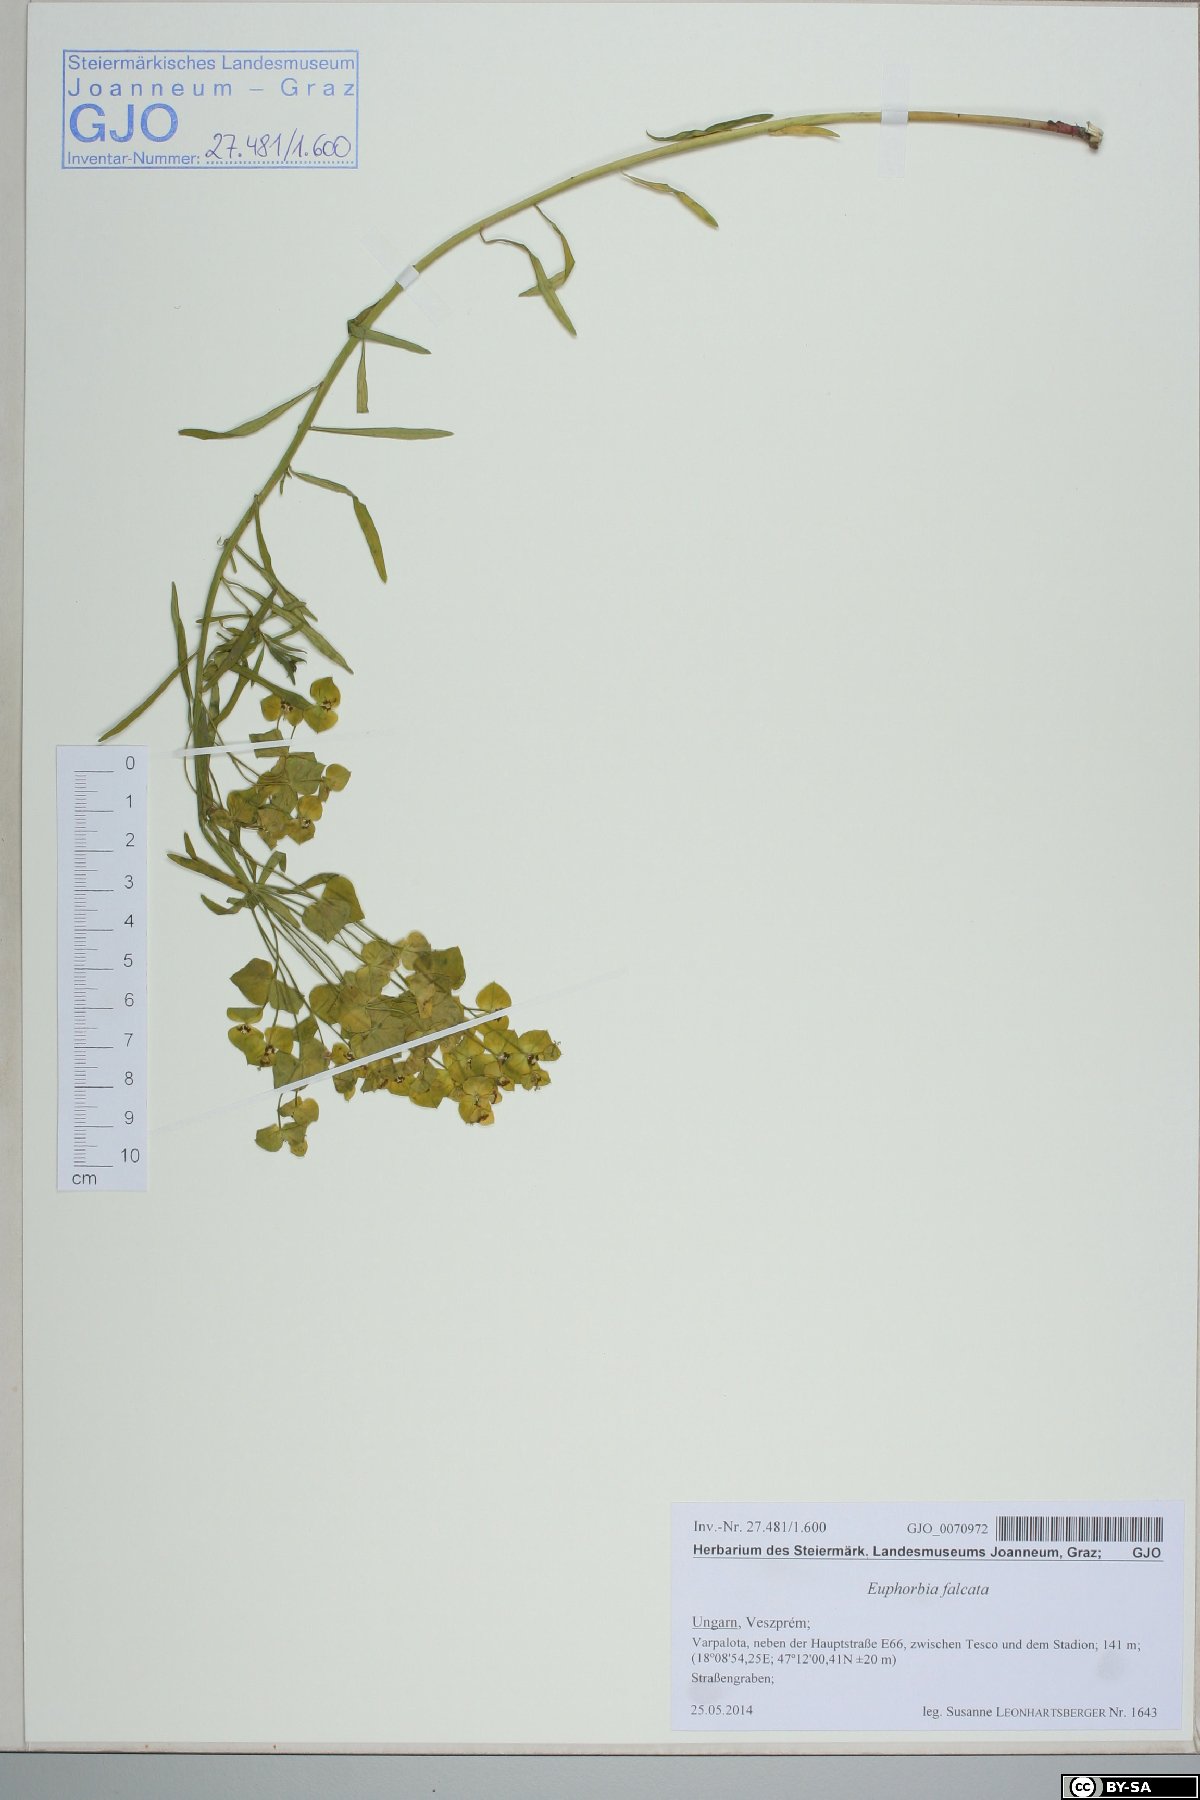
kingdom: Plantae
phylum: Tracheophyta
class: Magnoliopsida
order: Malpighiales
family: Euphorbiaceae
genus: Euphorbia
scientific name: Euphorbia falcata
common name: Sickle spurge
